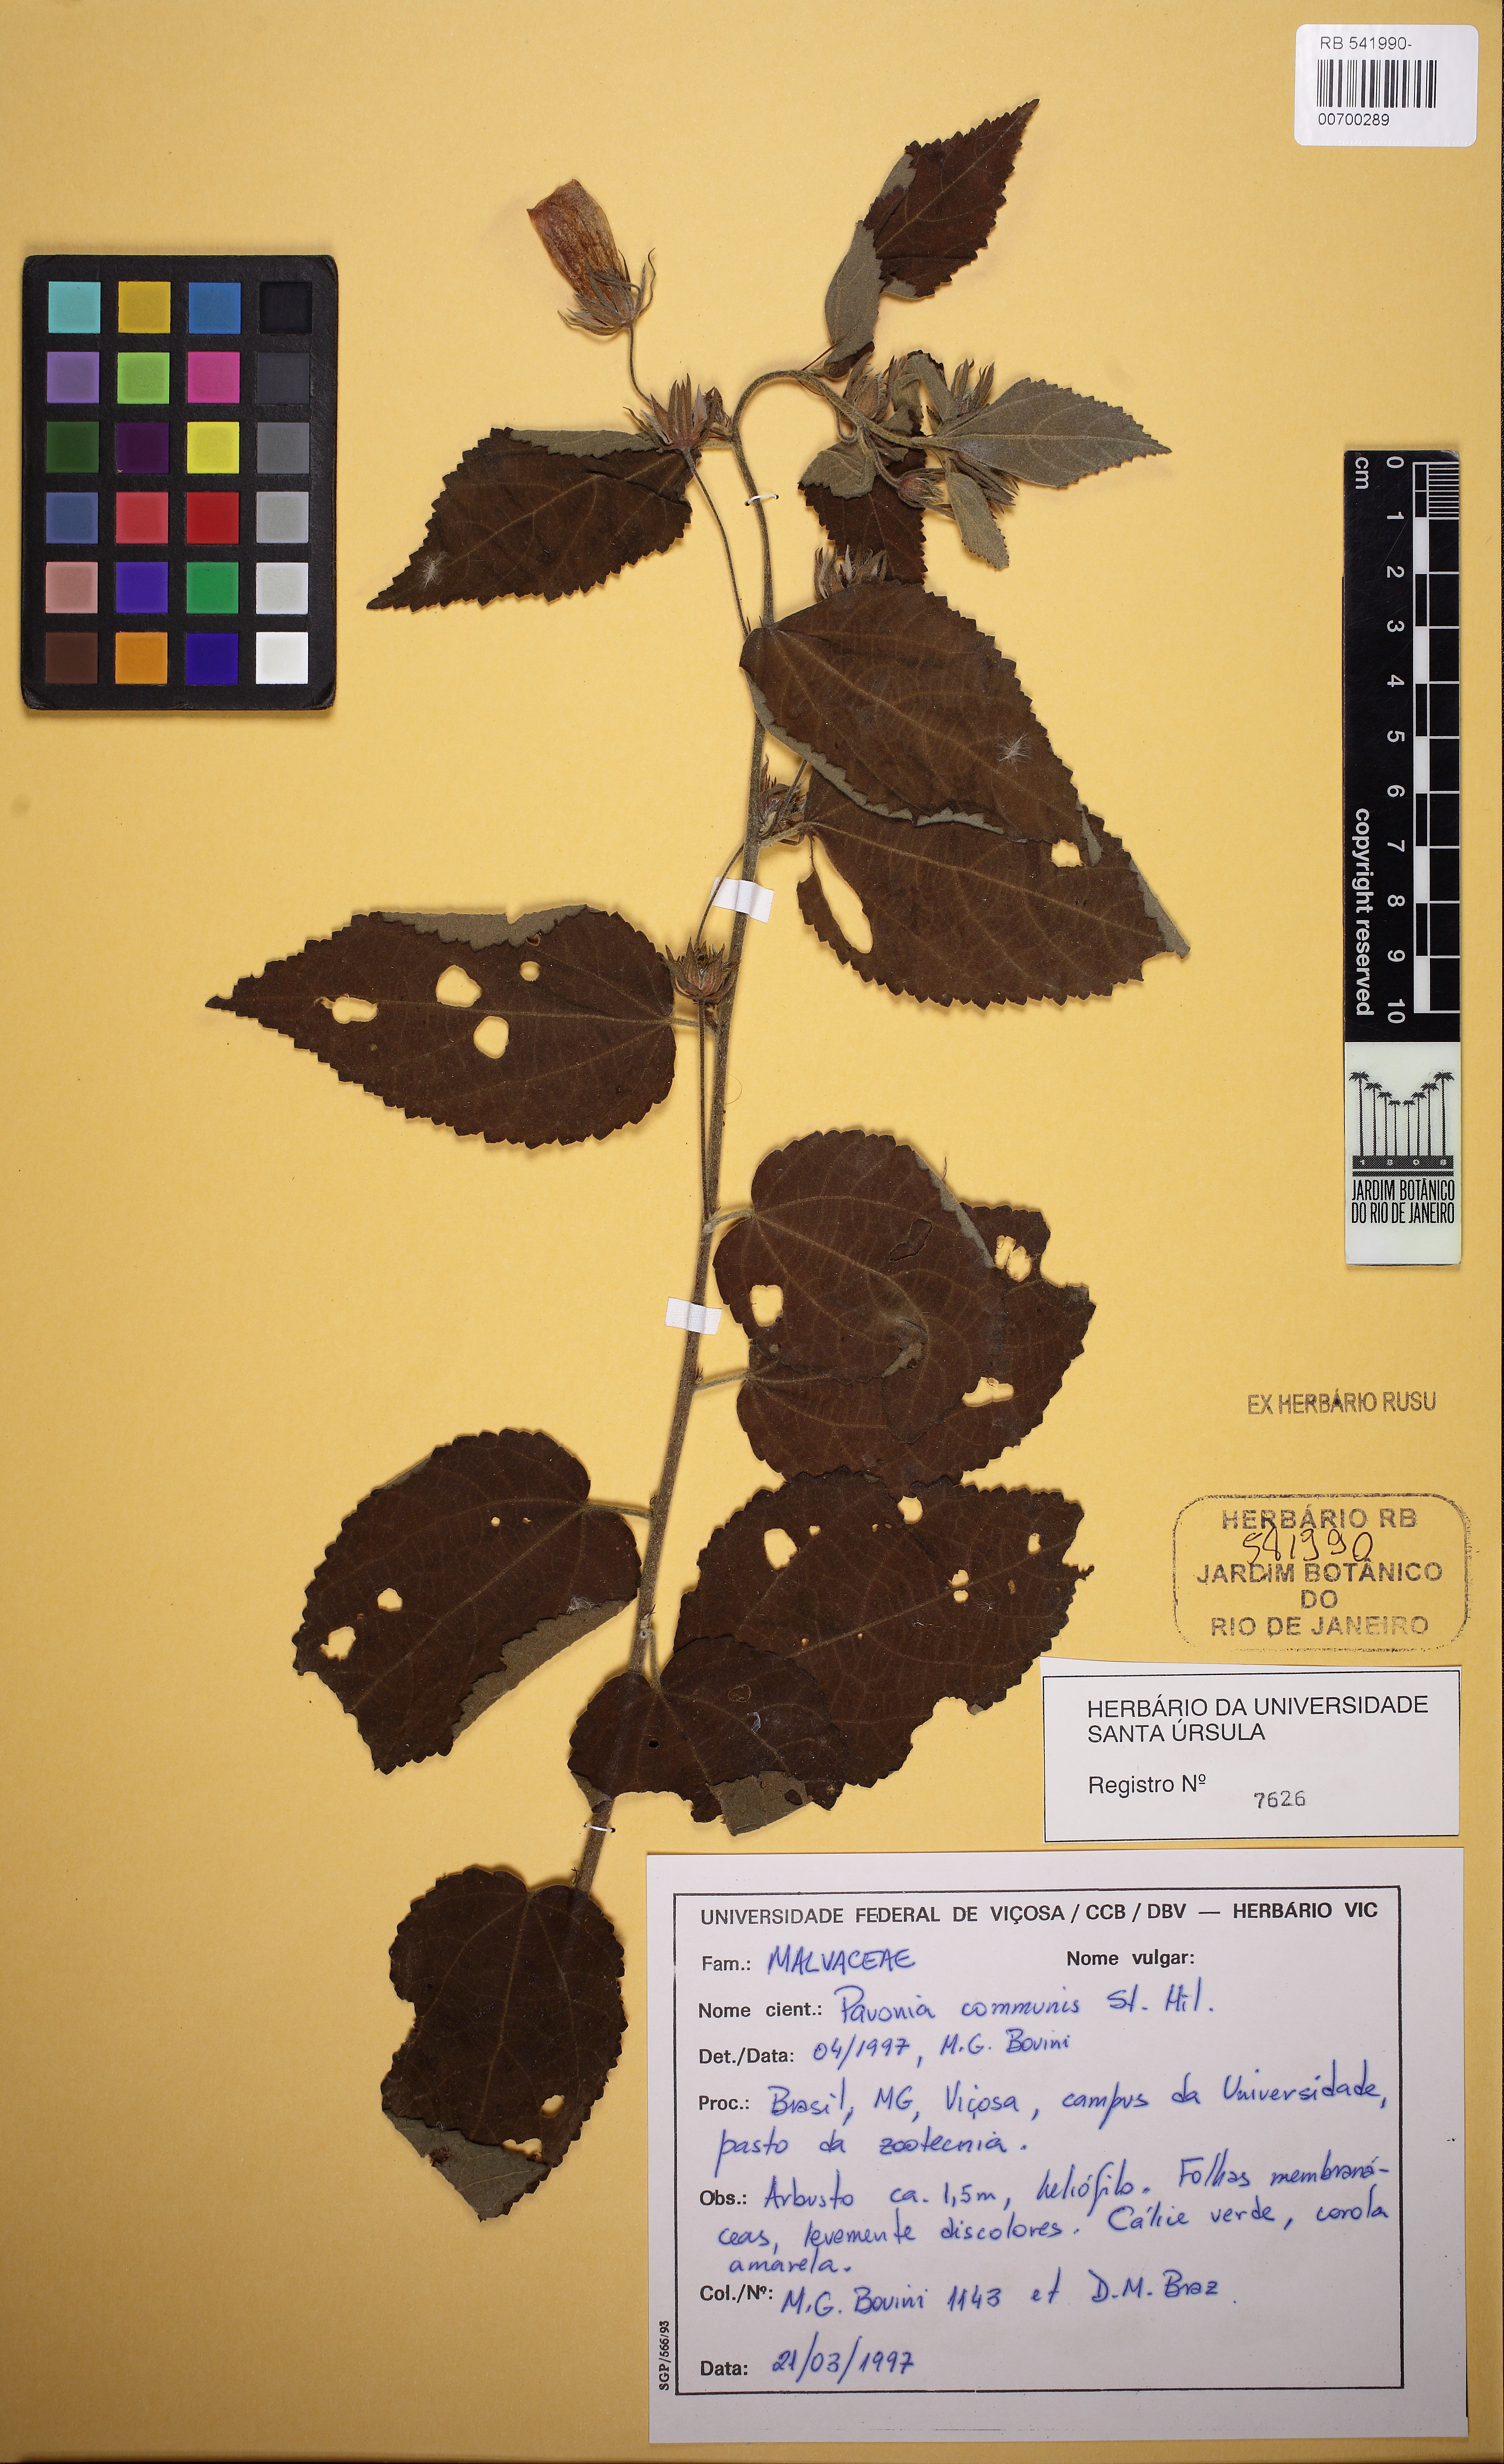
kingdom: Plantae
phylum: Tracheophyta
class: Magnoliopsida
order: Malvales
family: Malvaceae
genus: Pavonia
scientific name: Pavonia communis
